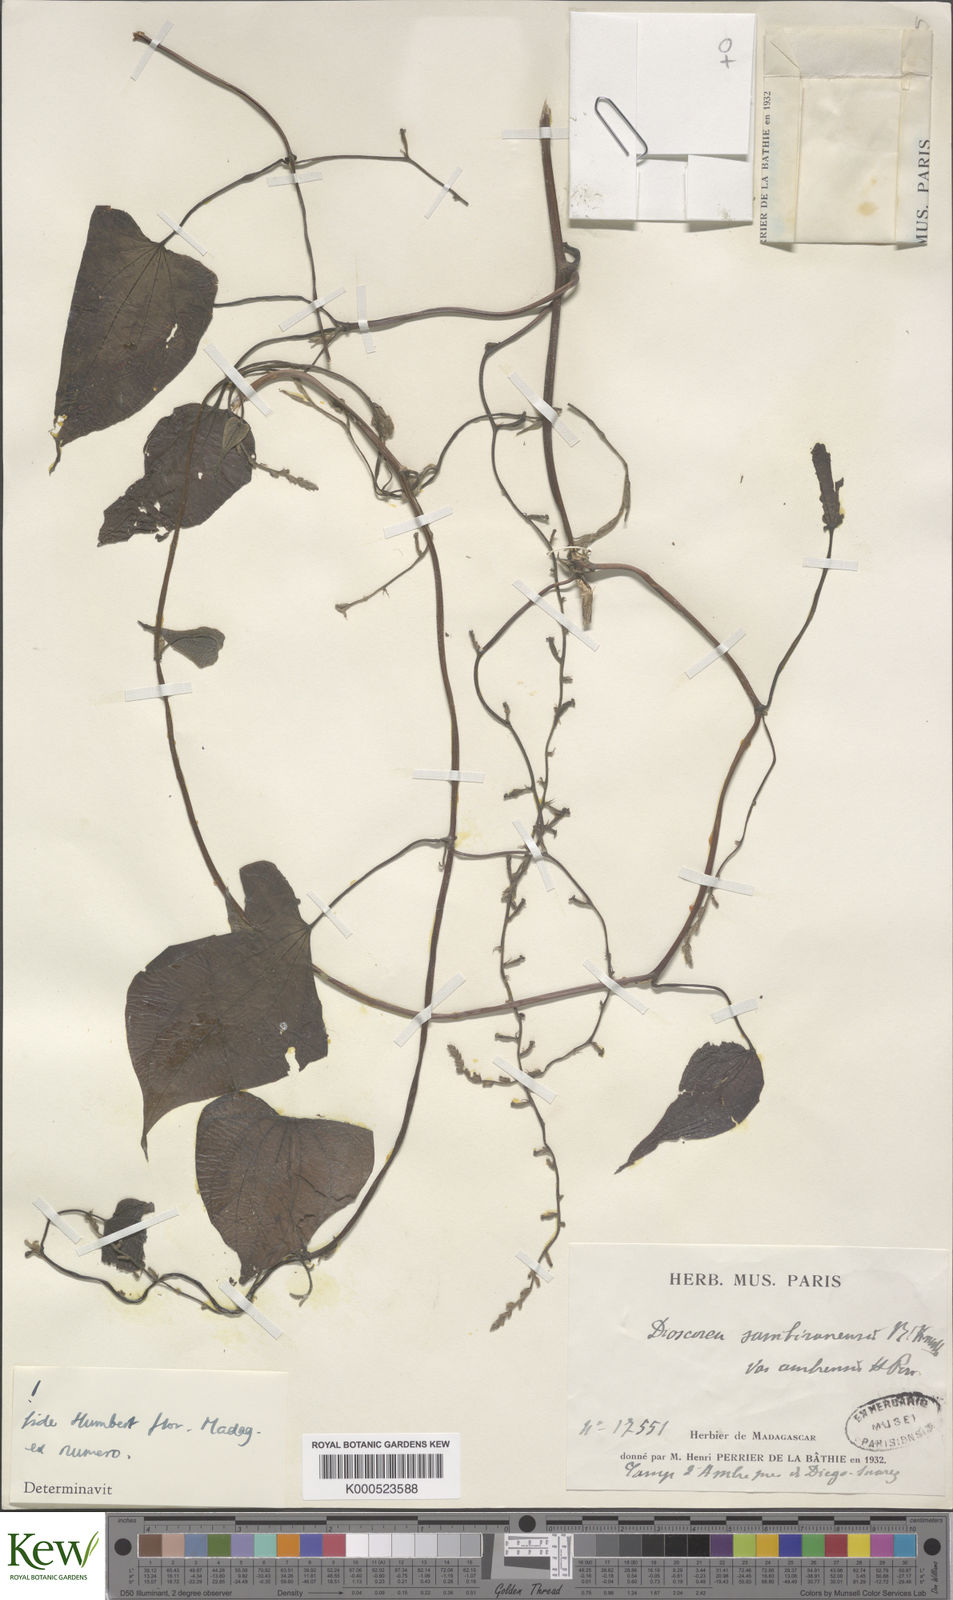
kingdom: Plantae
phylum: Tracheophyta
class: Liliopsida
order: Dioscoreales
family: Dioscoreaceae
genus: Dioscorea
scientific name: Dioscorea sambiranensis
